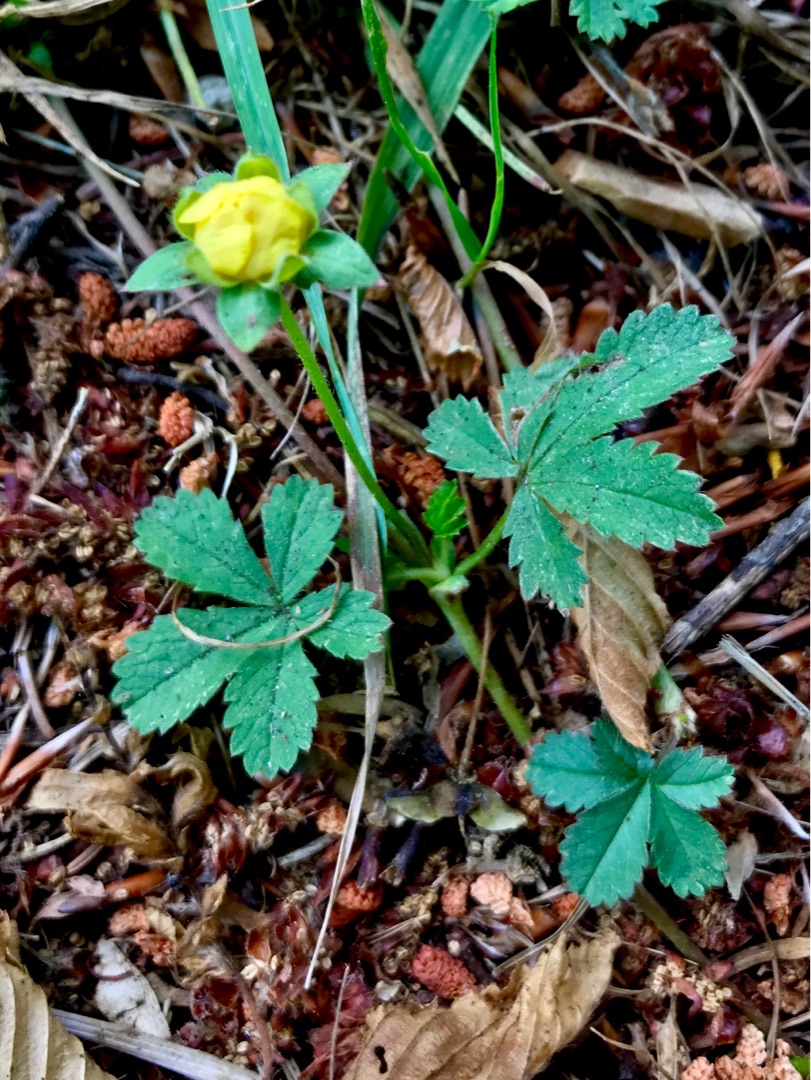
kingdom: Plantae
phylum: Tracheophyta
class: Magnoliopsida
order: Rosales
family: Rosaceae
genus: Potentilla
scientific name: Potentilla reptans
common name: Krybende potentil
